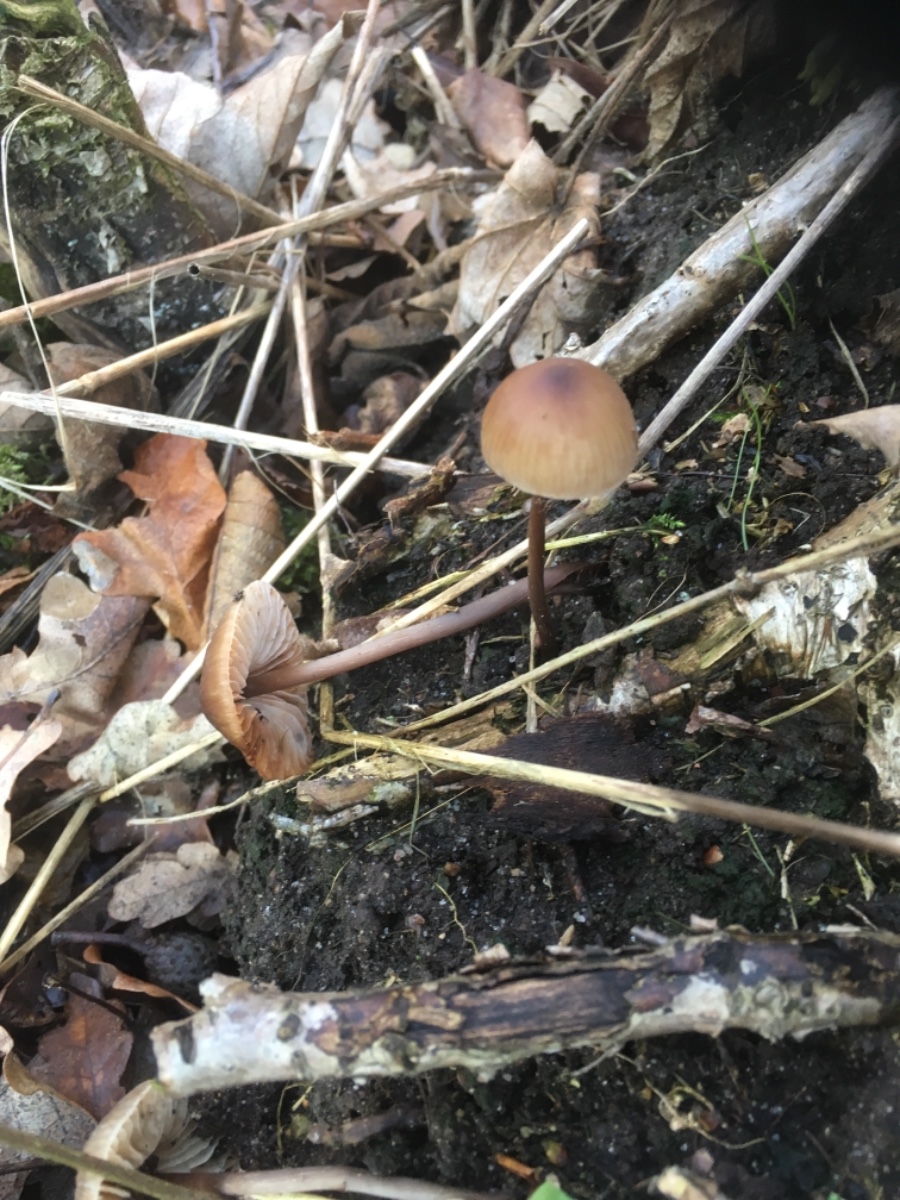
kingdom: Fungi
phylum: Basidiomycota
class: Agaricomycetes
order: Agaricales
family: Mycenaceae
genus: Mycena
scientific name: Mycena
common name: huesvamp
